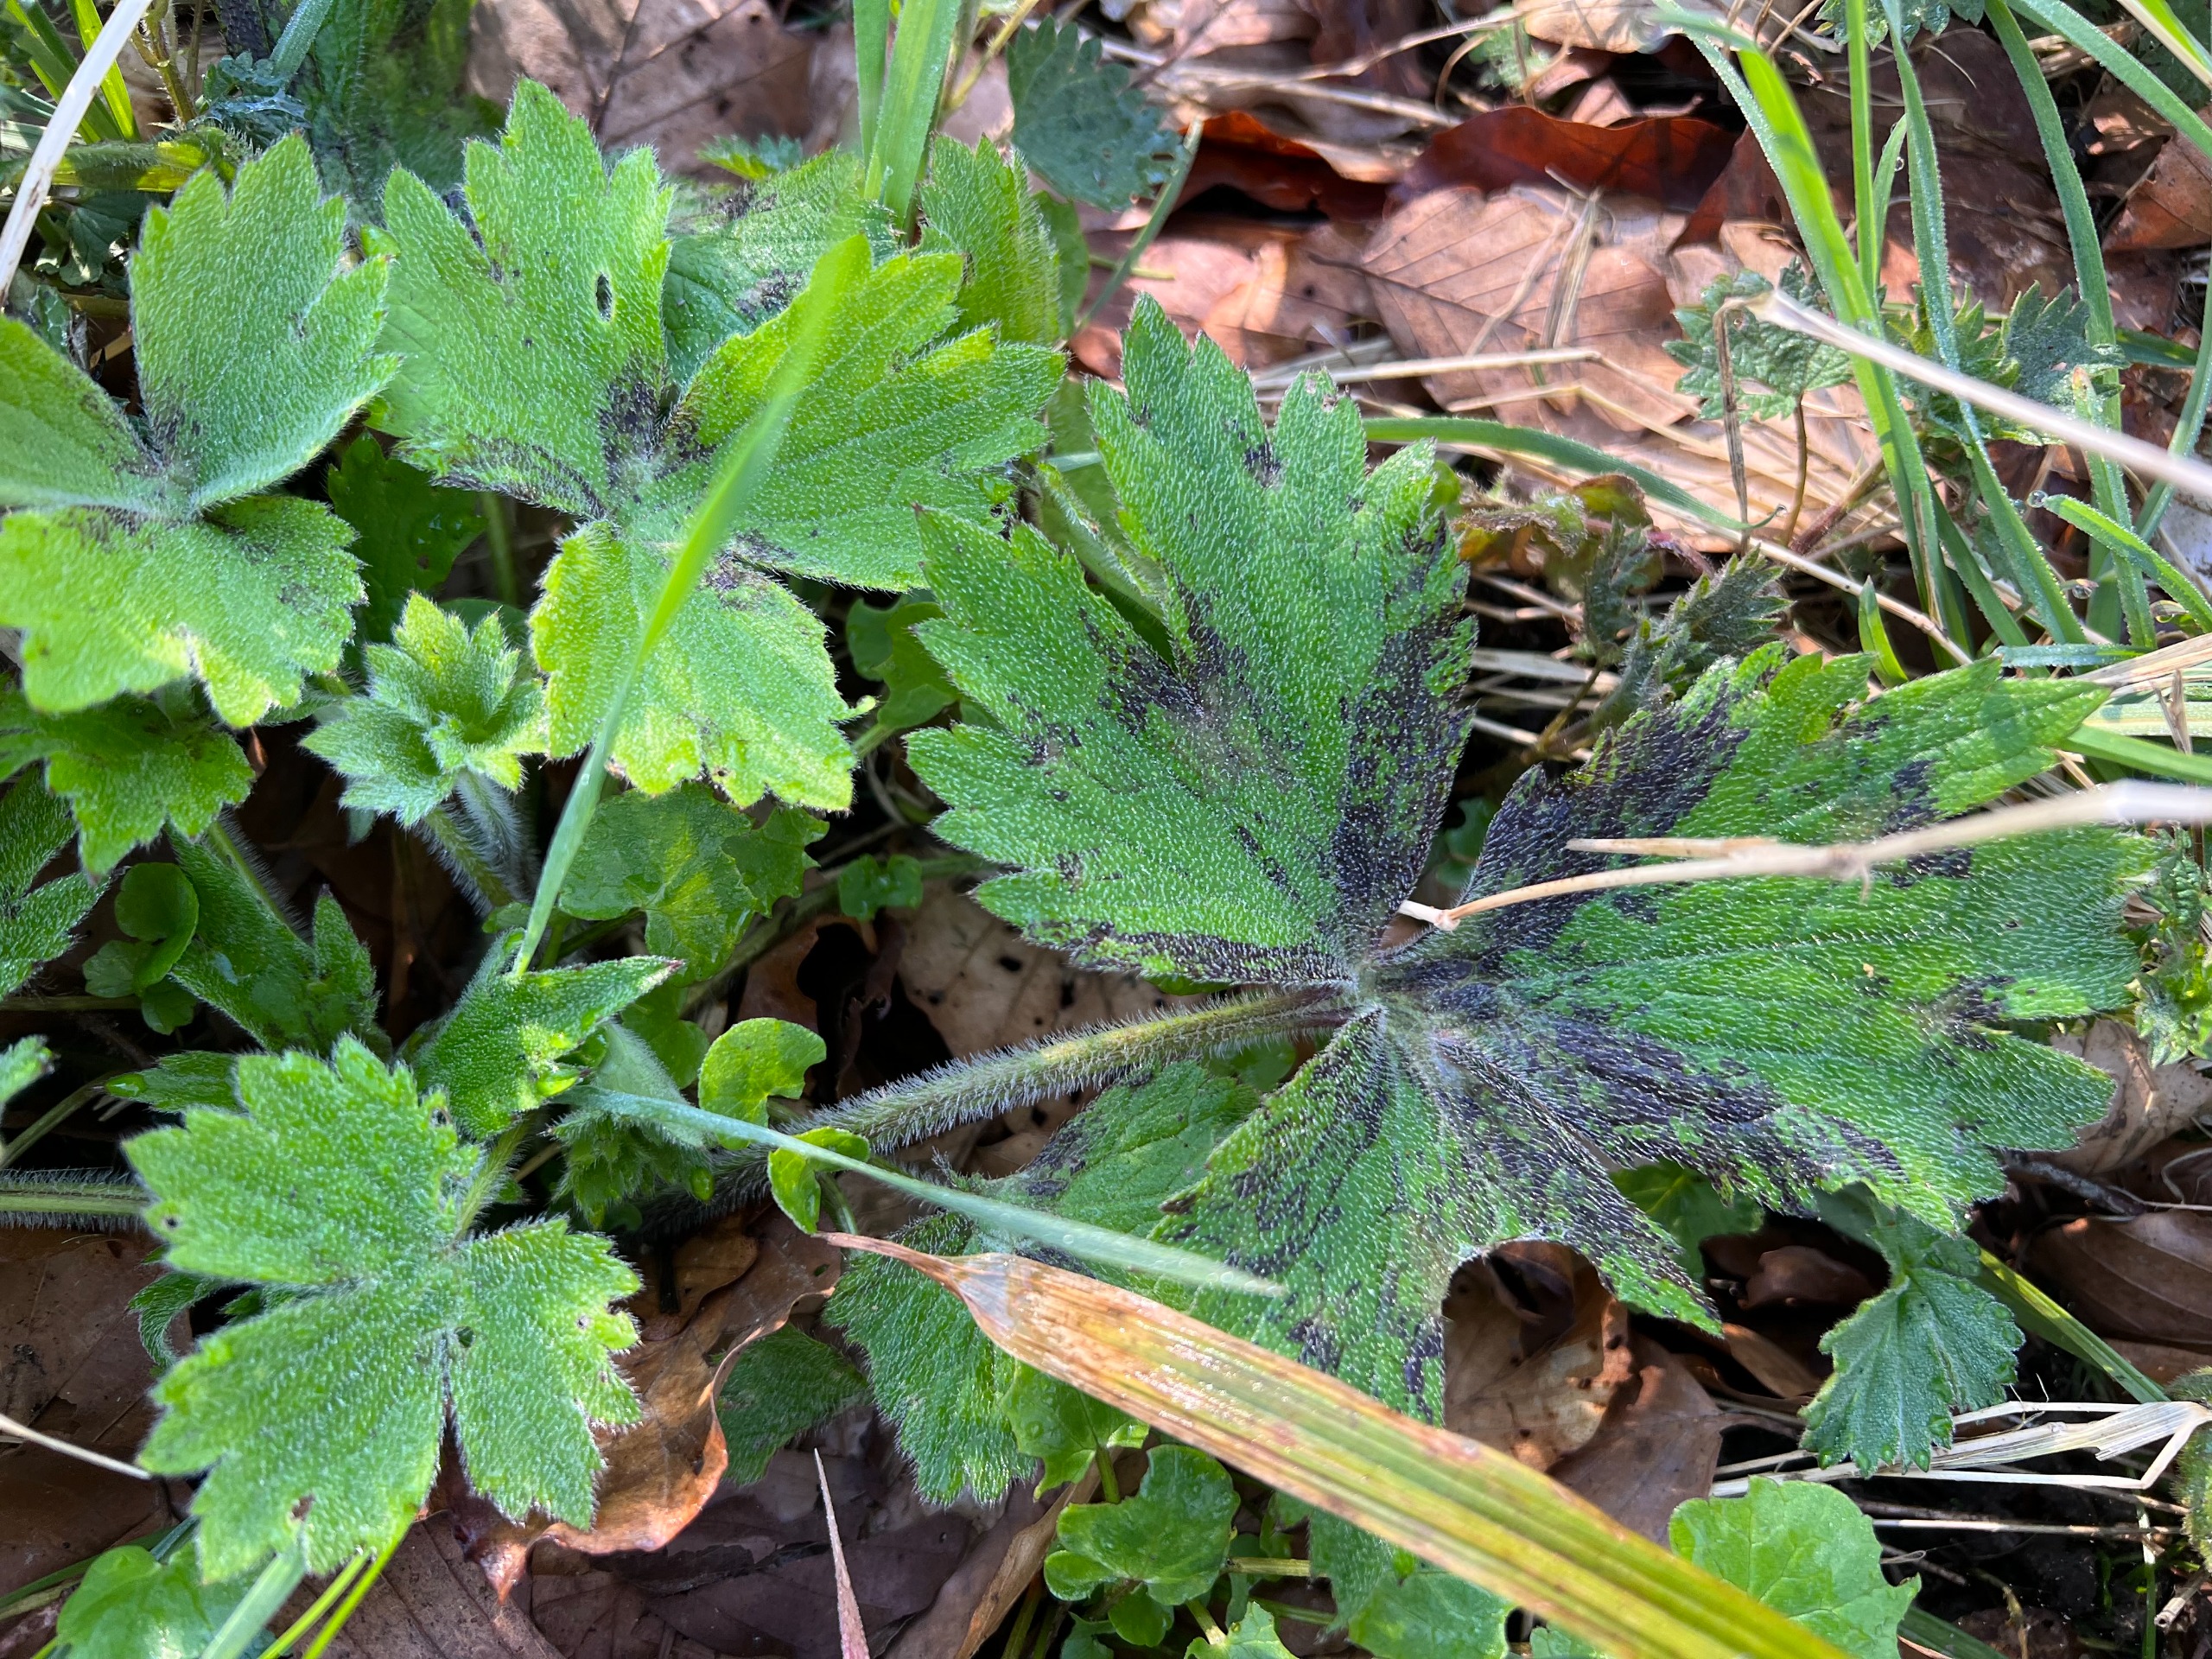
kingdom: Plantae
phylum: Tracheophyta
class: Magnoliopsida
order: Ranunculales
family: Ranunculaceae
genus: Ranunculus
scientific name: Ranunculus lanuginosus
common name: Uldhåret ranunkel
